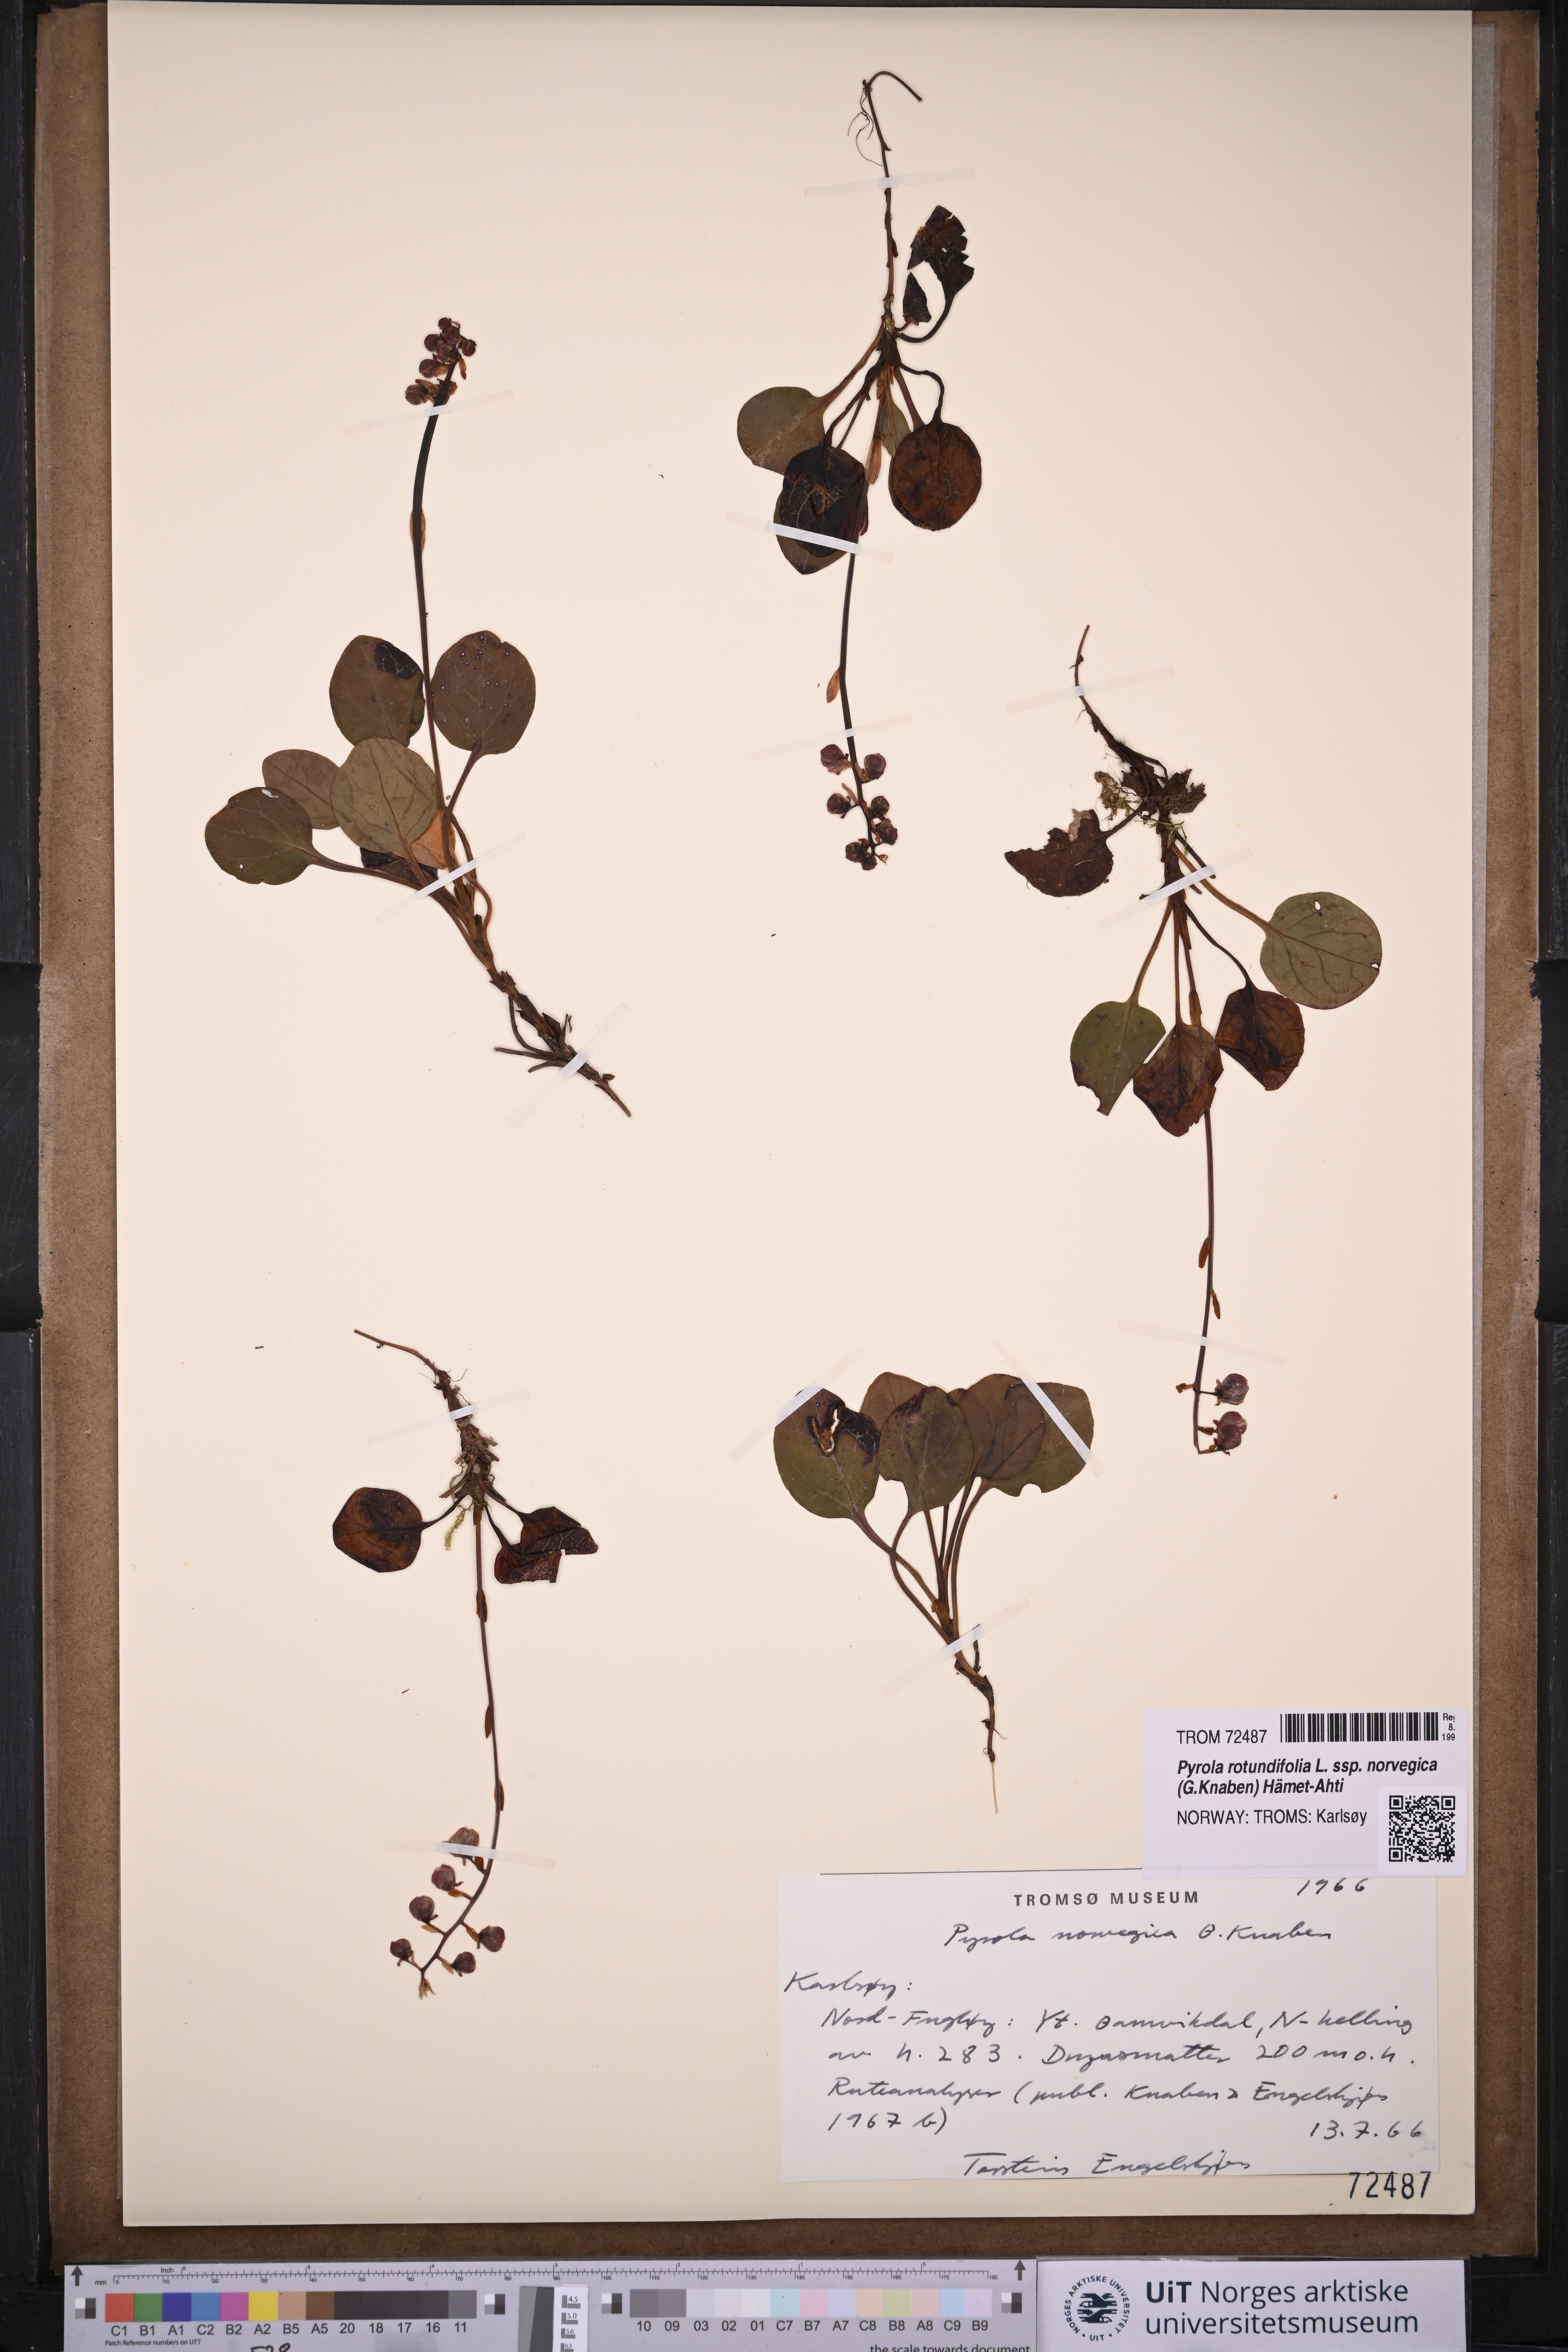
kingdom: Plantae
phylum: Tracheophyta
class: Magnoliopsida
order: Ericales
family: Ericaceae
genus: Pyrola
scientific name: Pyrola rotundifolia
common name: Round-leaved wintergreen
